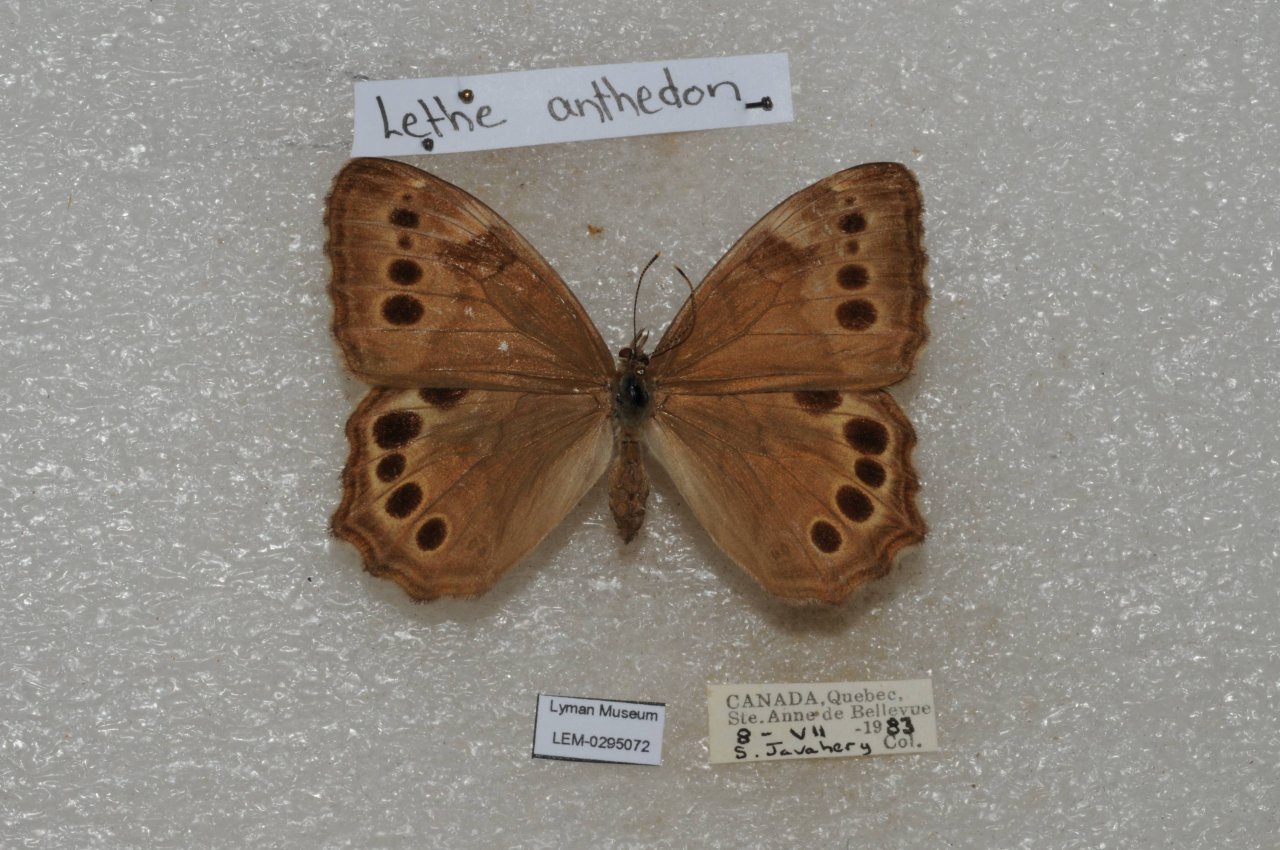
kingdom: Animalia
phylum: Arthropoda
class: Insecta
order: Lepidoptera
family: Nymphalidae
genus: Lethe
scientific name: Lethe anthedon
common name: Northern Pearly-Eye
